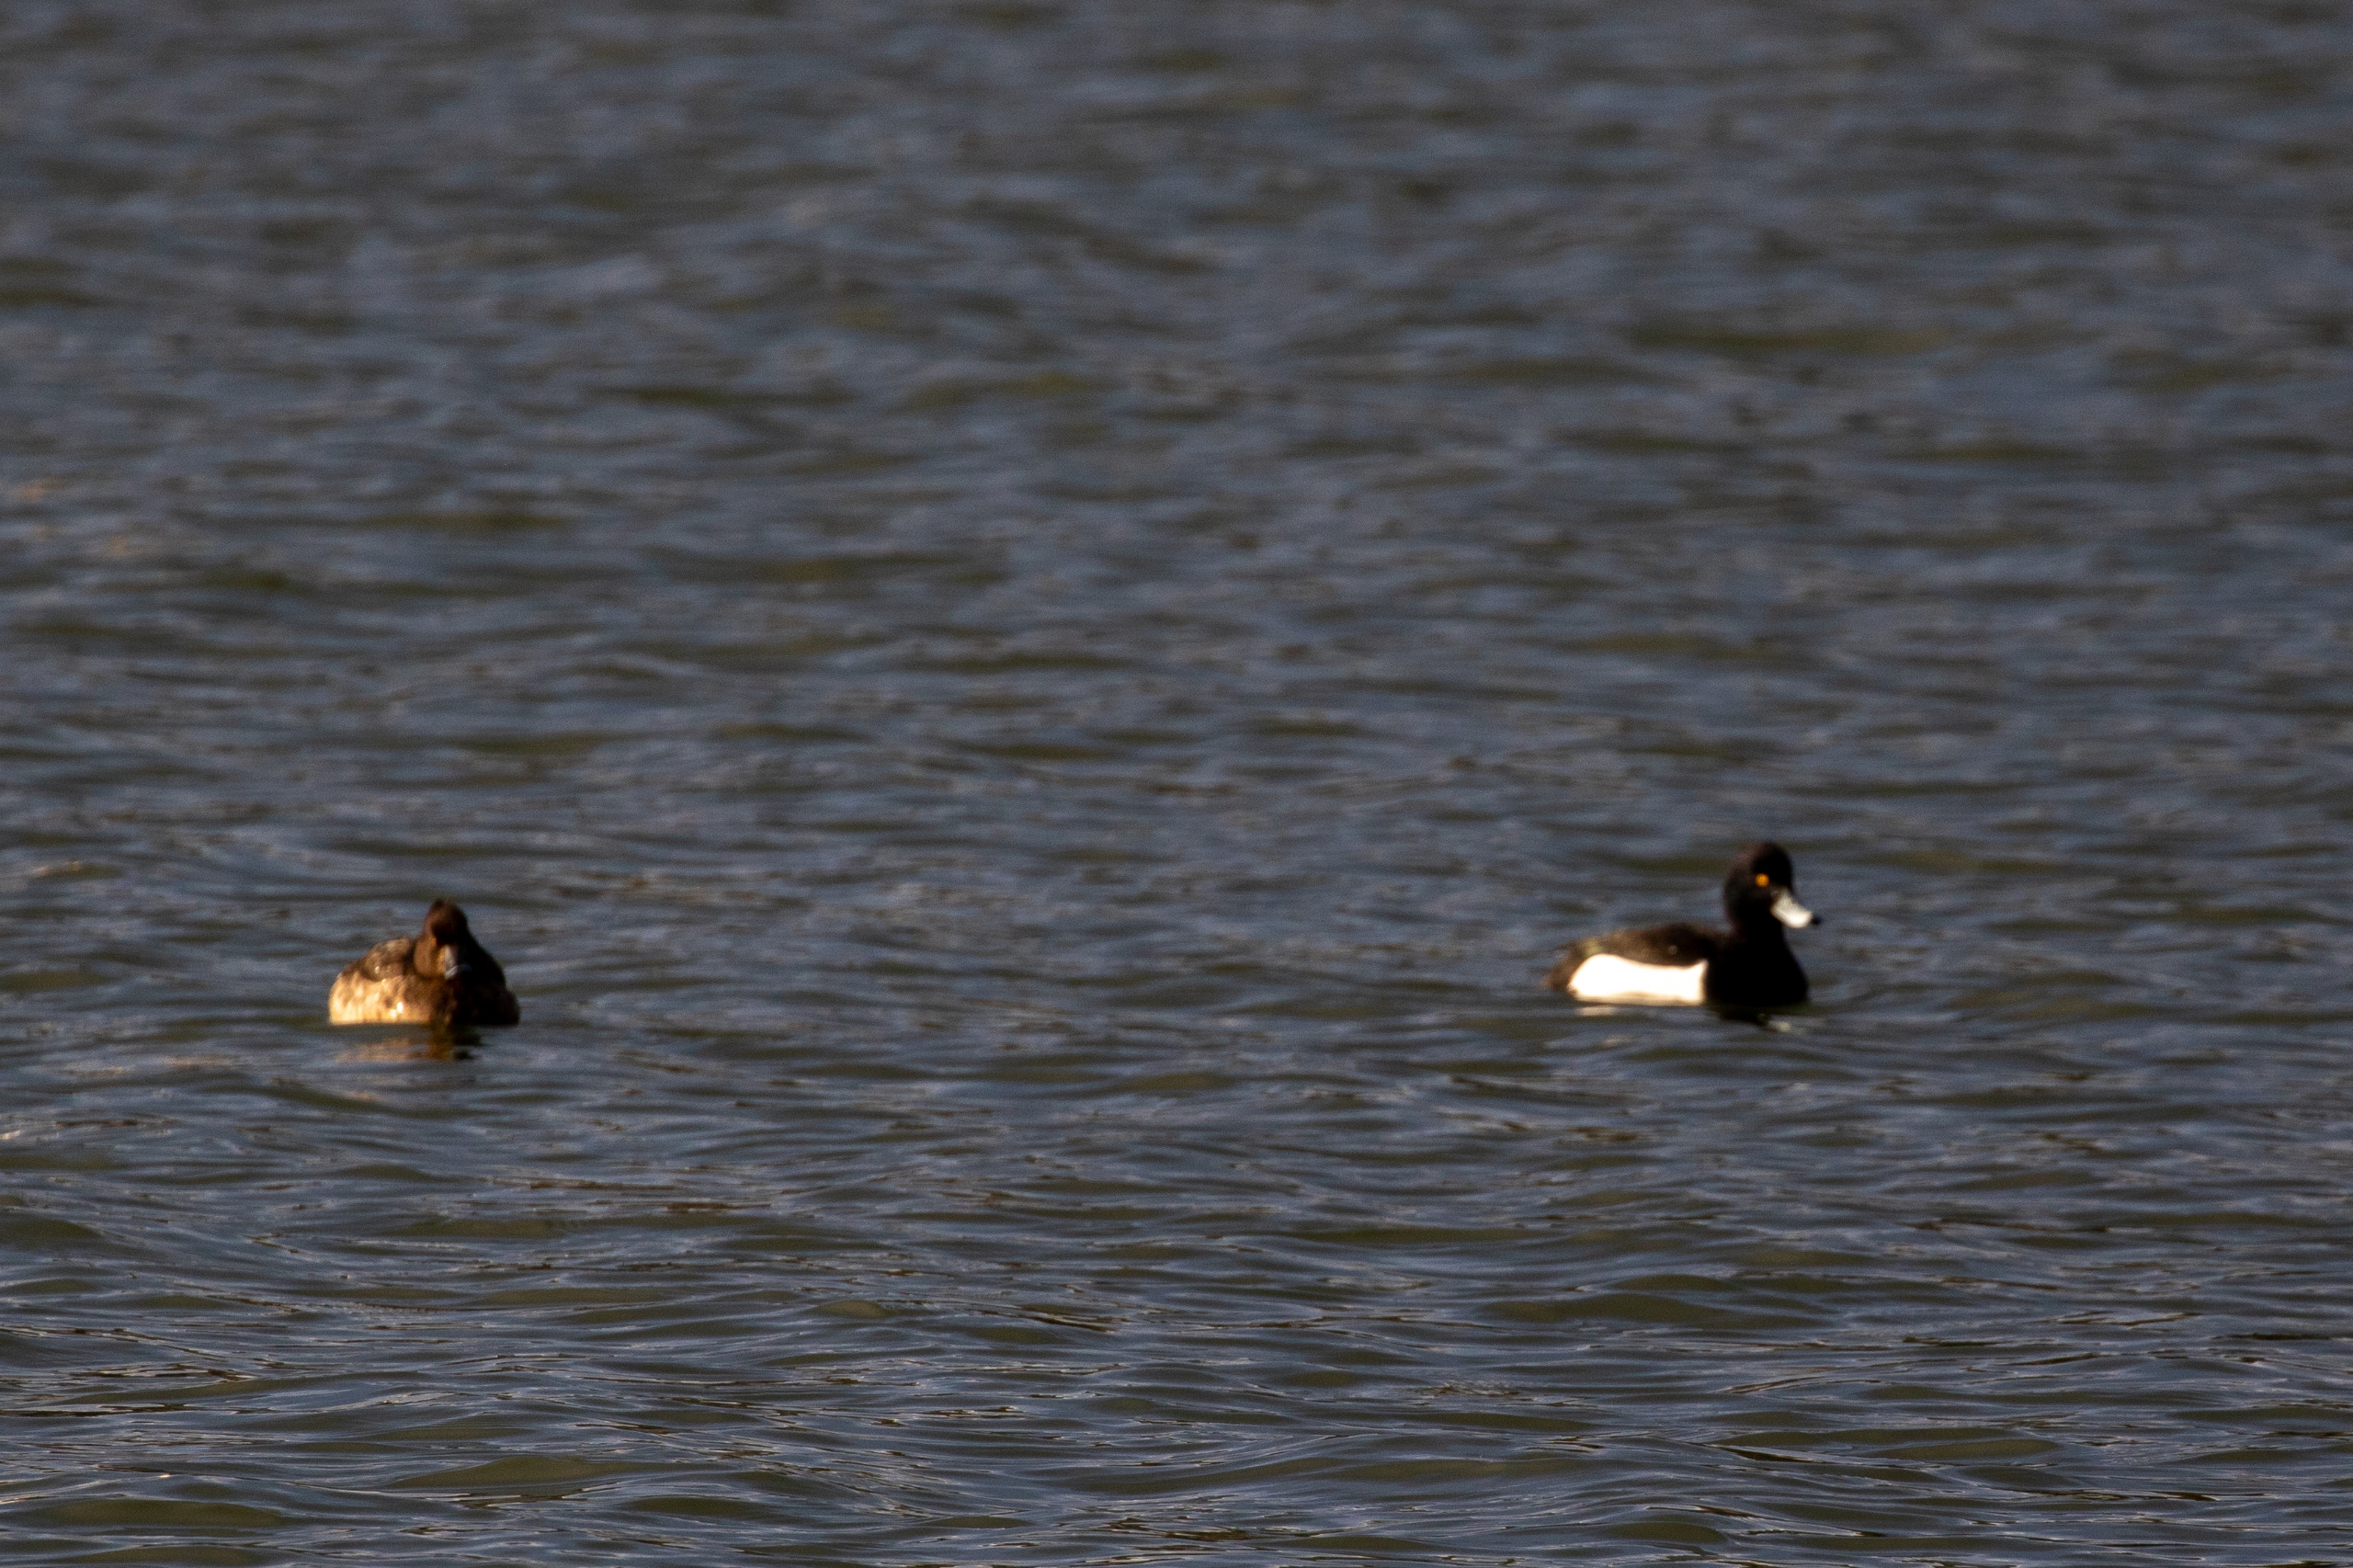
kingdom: Animalia
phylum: Chordata
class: Aves
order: Anseriformes
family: Anatidae
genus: Aythya
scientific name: Aythya fuligula
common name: Troldand
